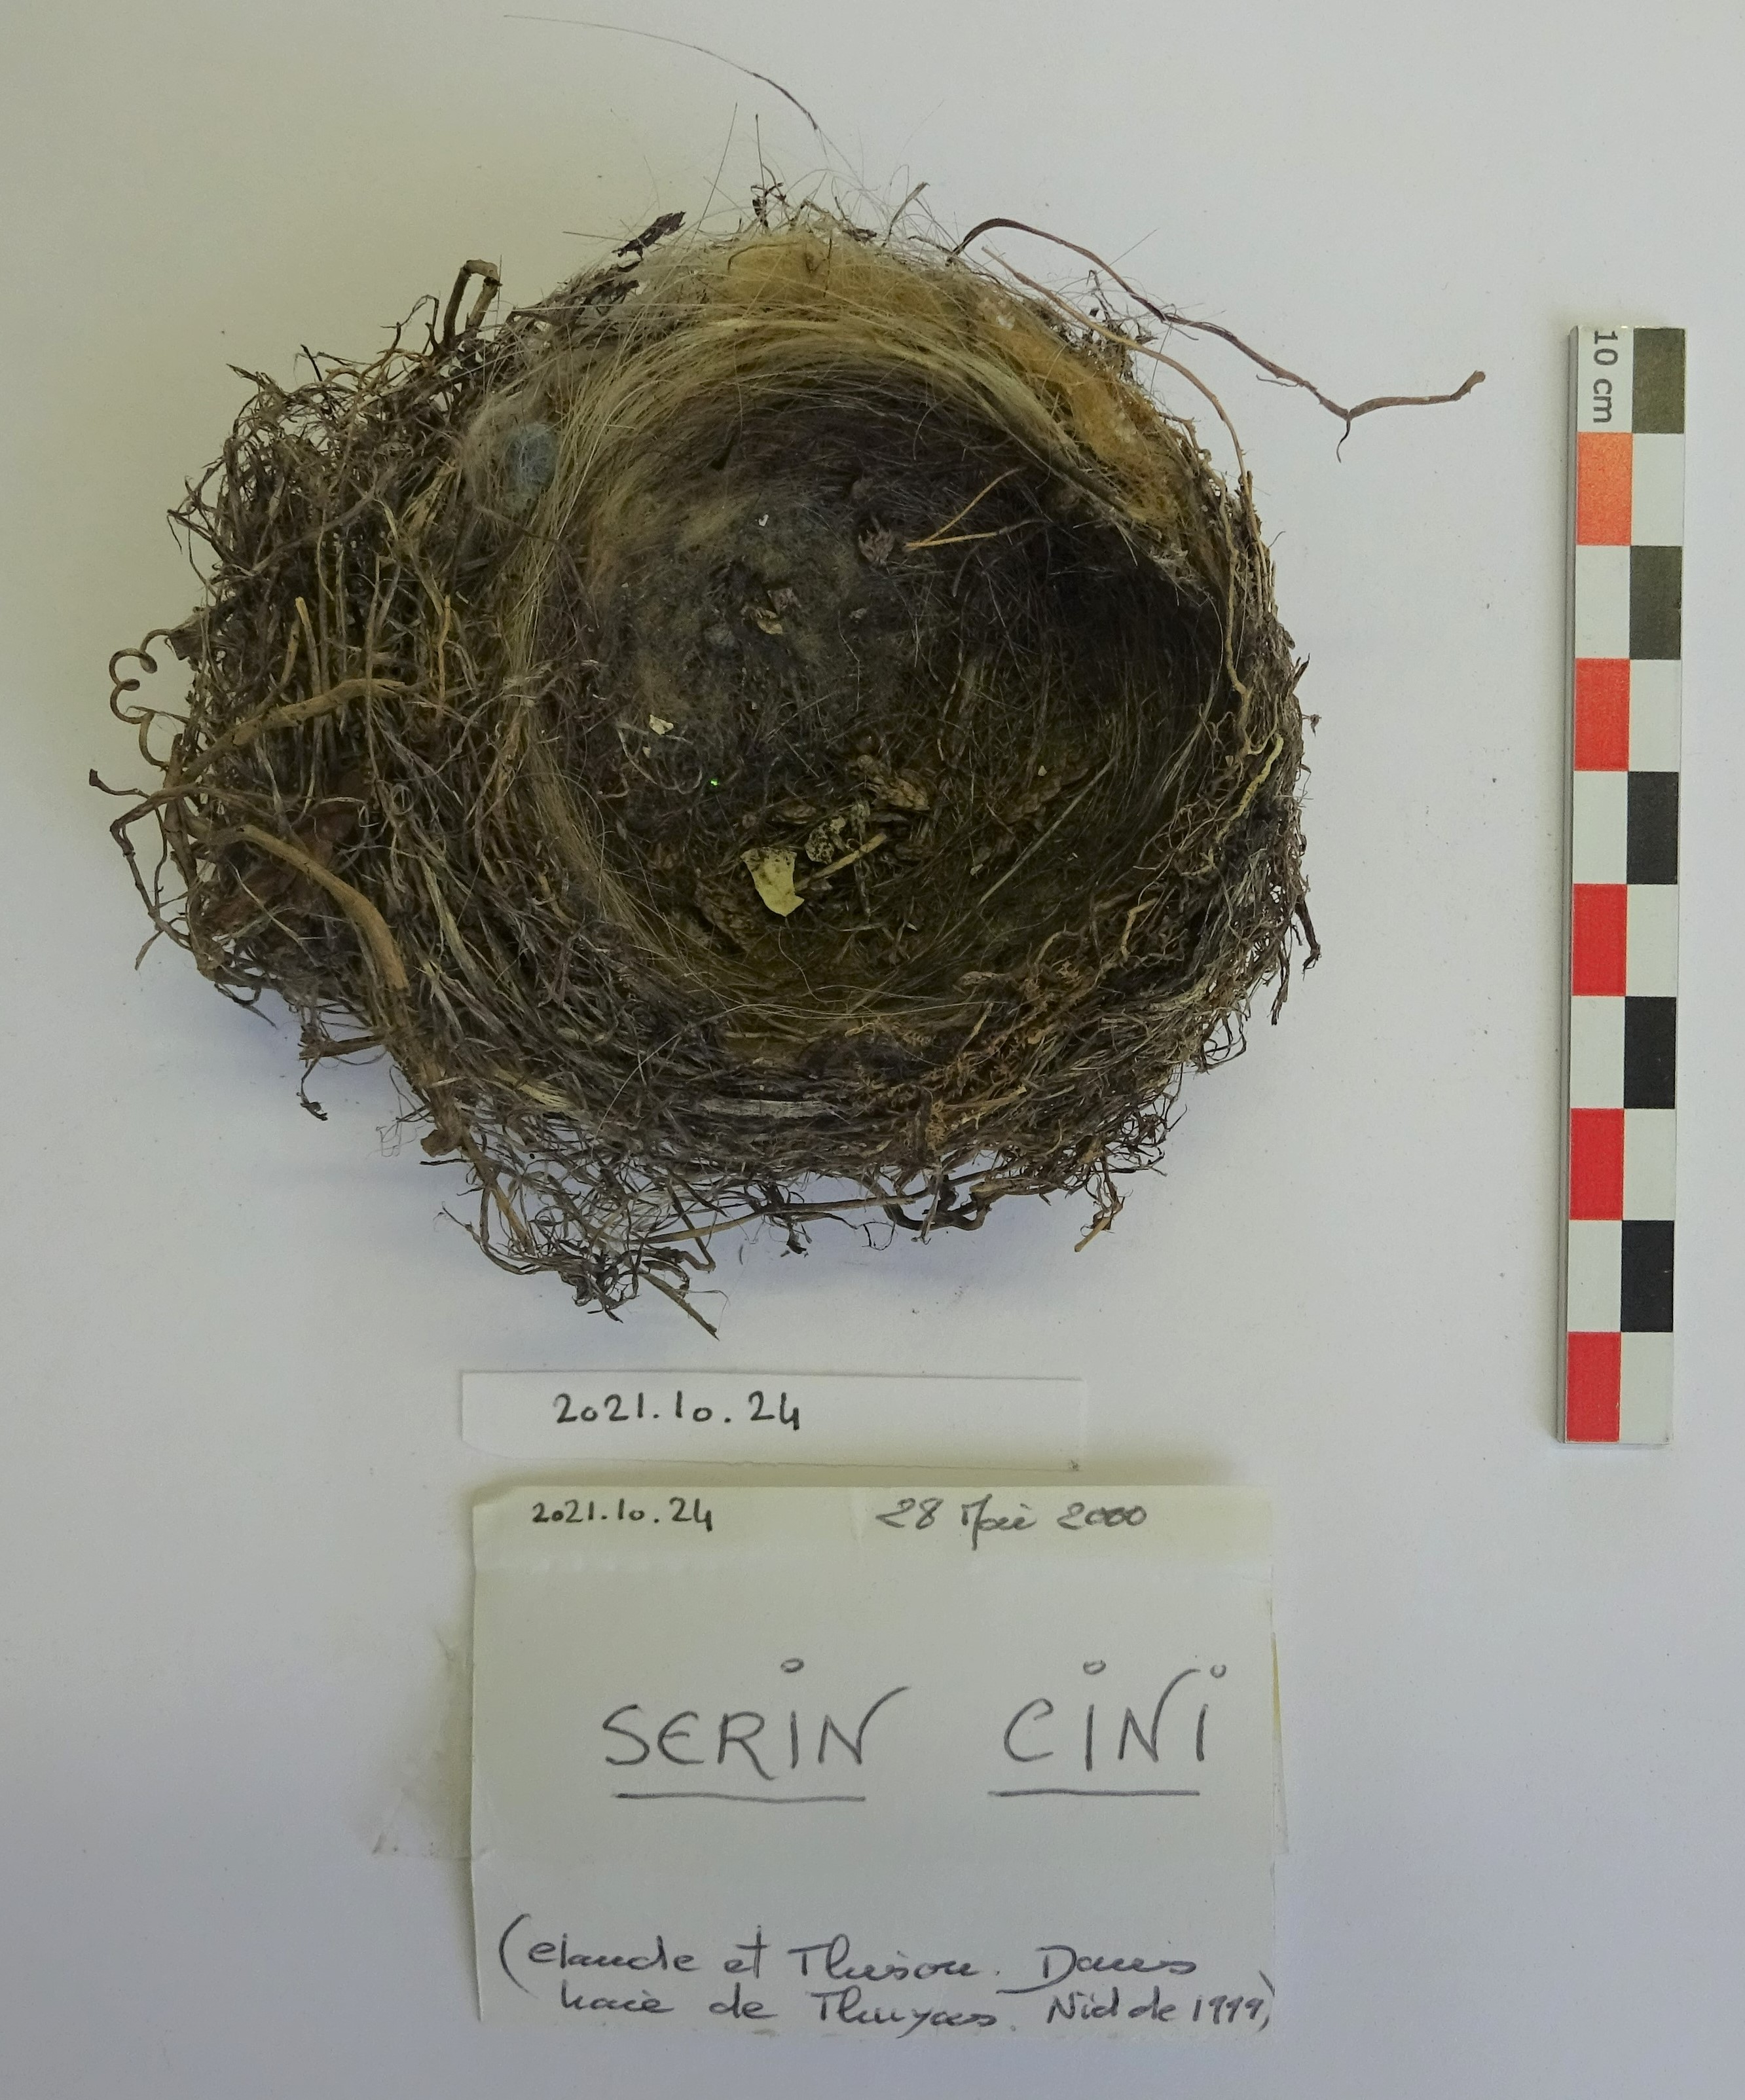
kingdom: Animalia
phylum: Chordata
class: Aves
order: Passeriformes
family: Fringillidae
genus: Serinus
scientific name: Serinus serinus
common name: European serin
